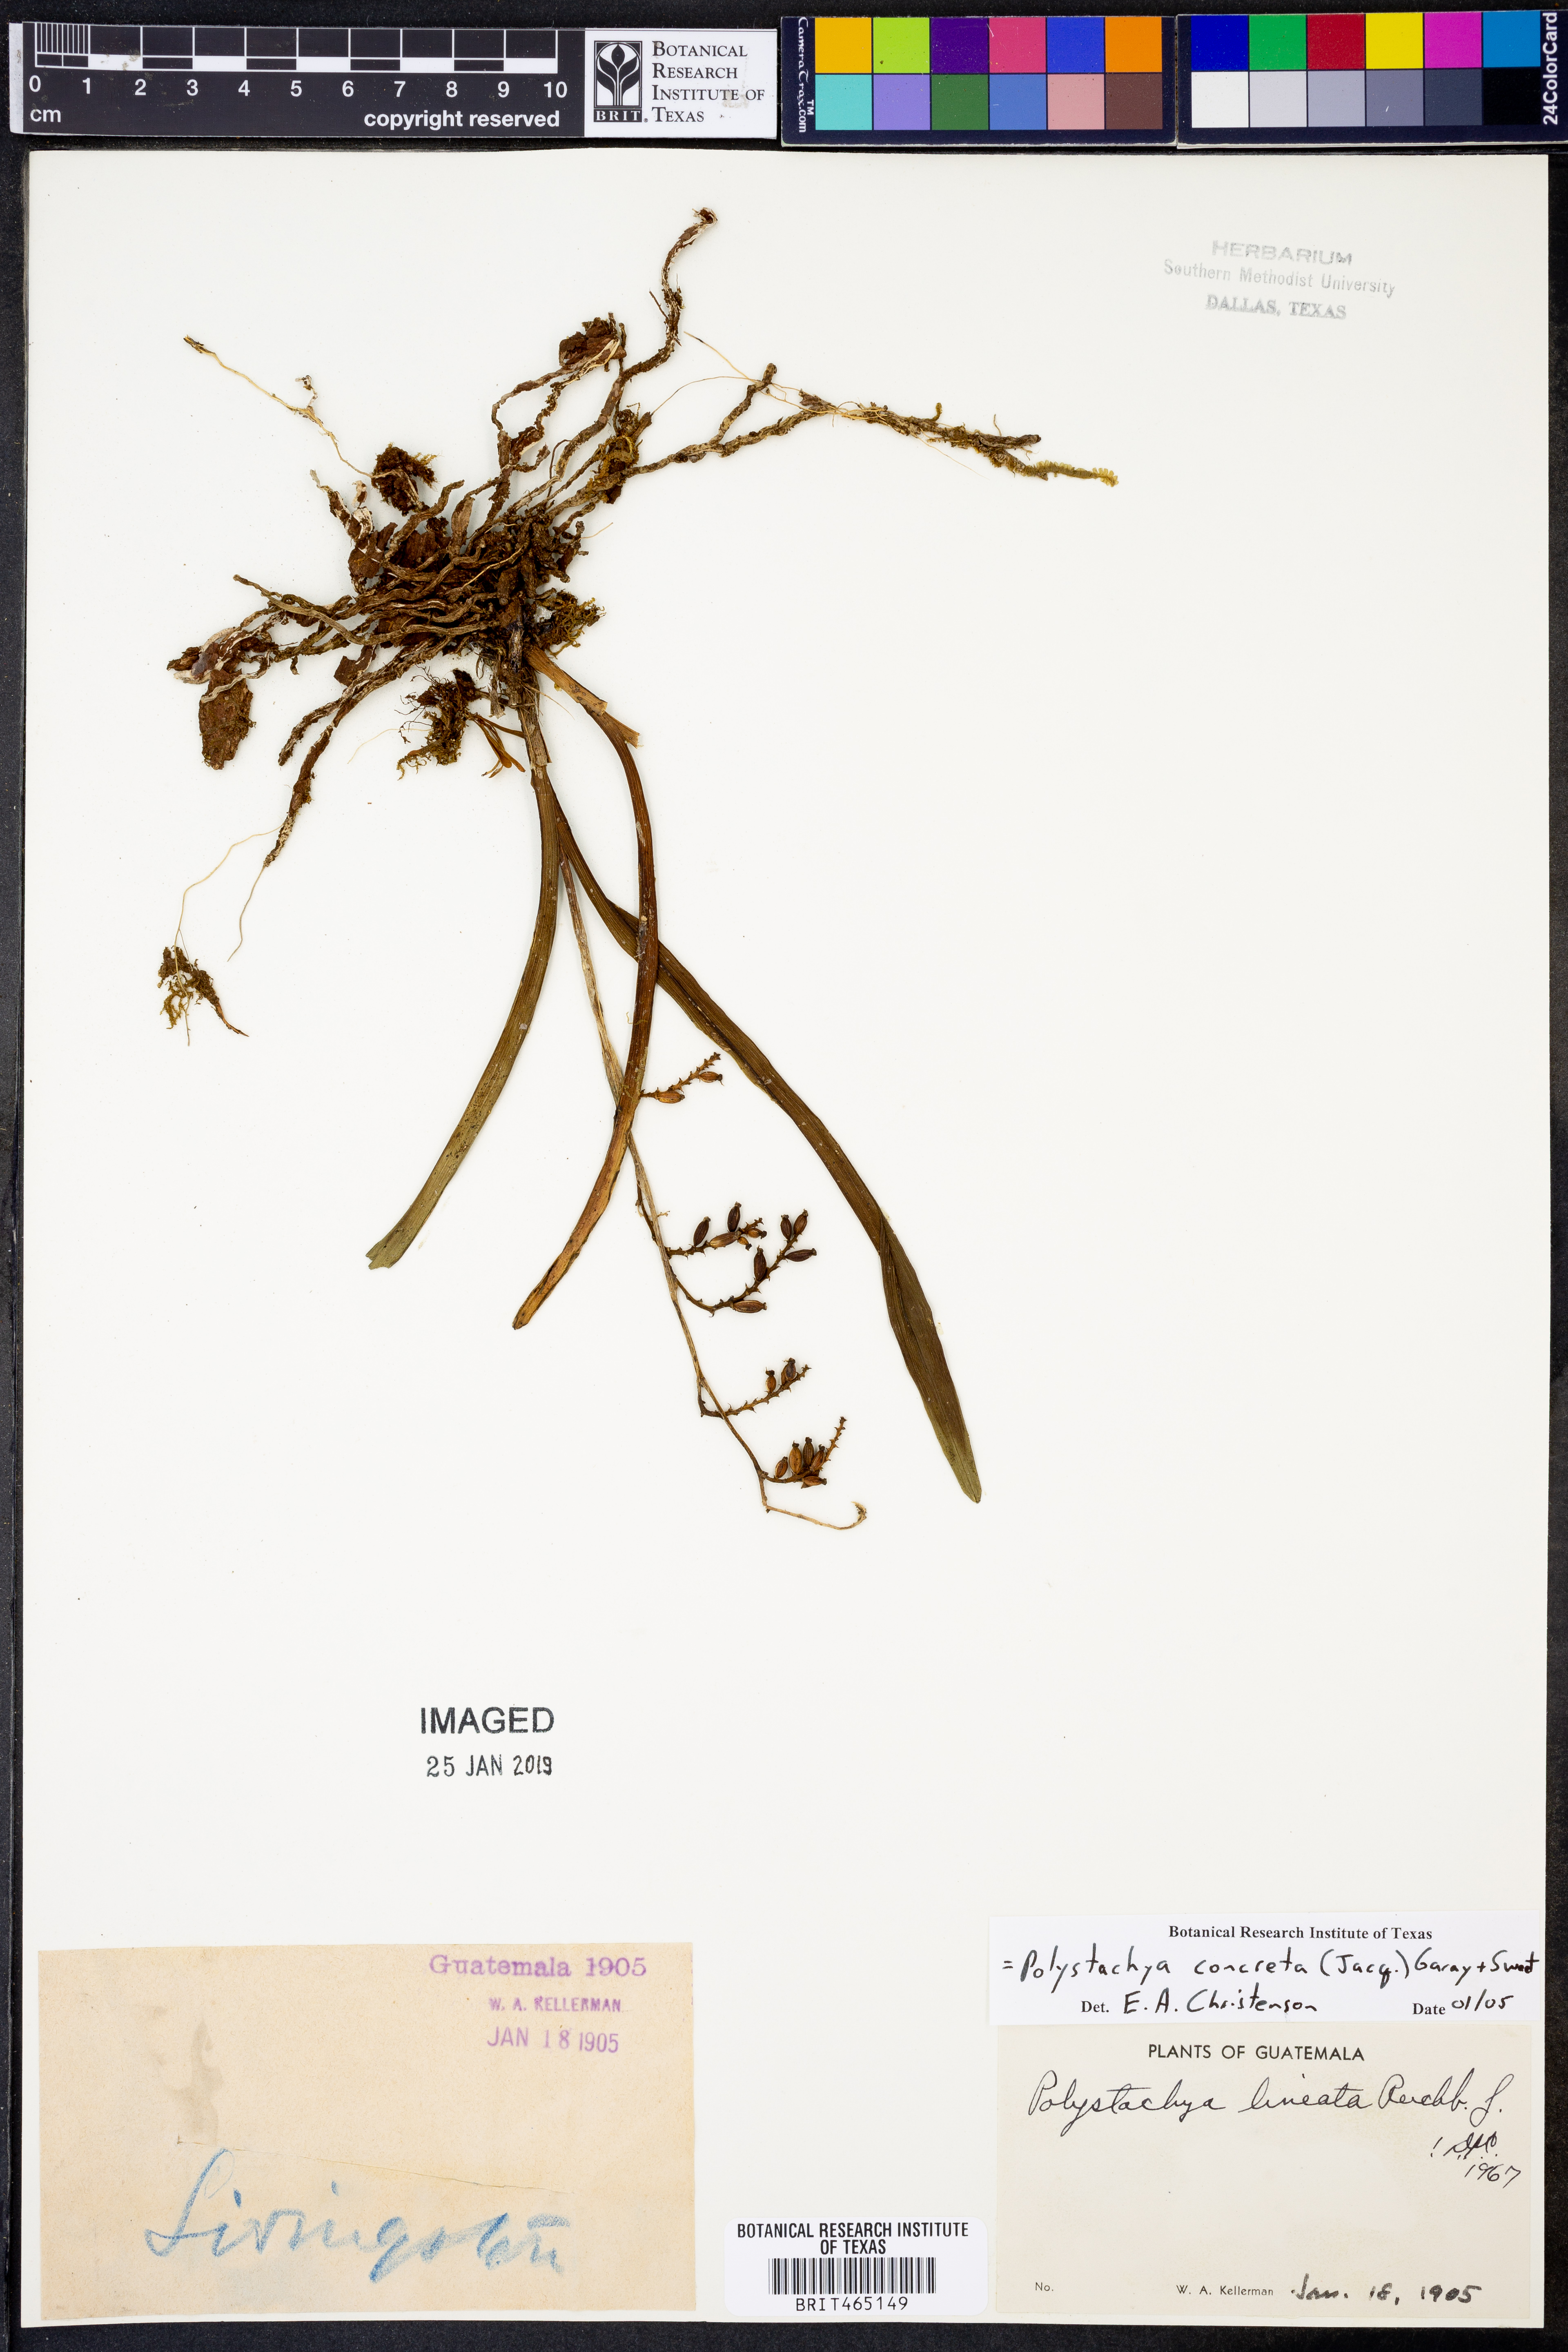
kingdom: Plantae
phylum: Tracheophyta
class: Liliopsida
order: Asparagales
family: Orchidaceae
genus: Polystachya
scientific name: Polystachya concreta
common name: Greater yellowspike orchid
